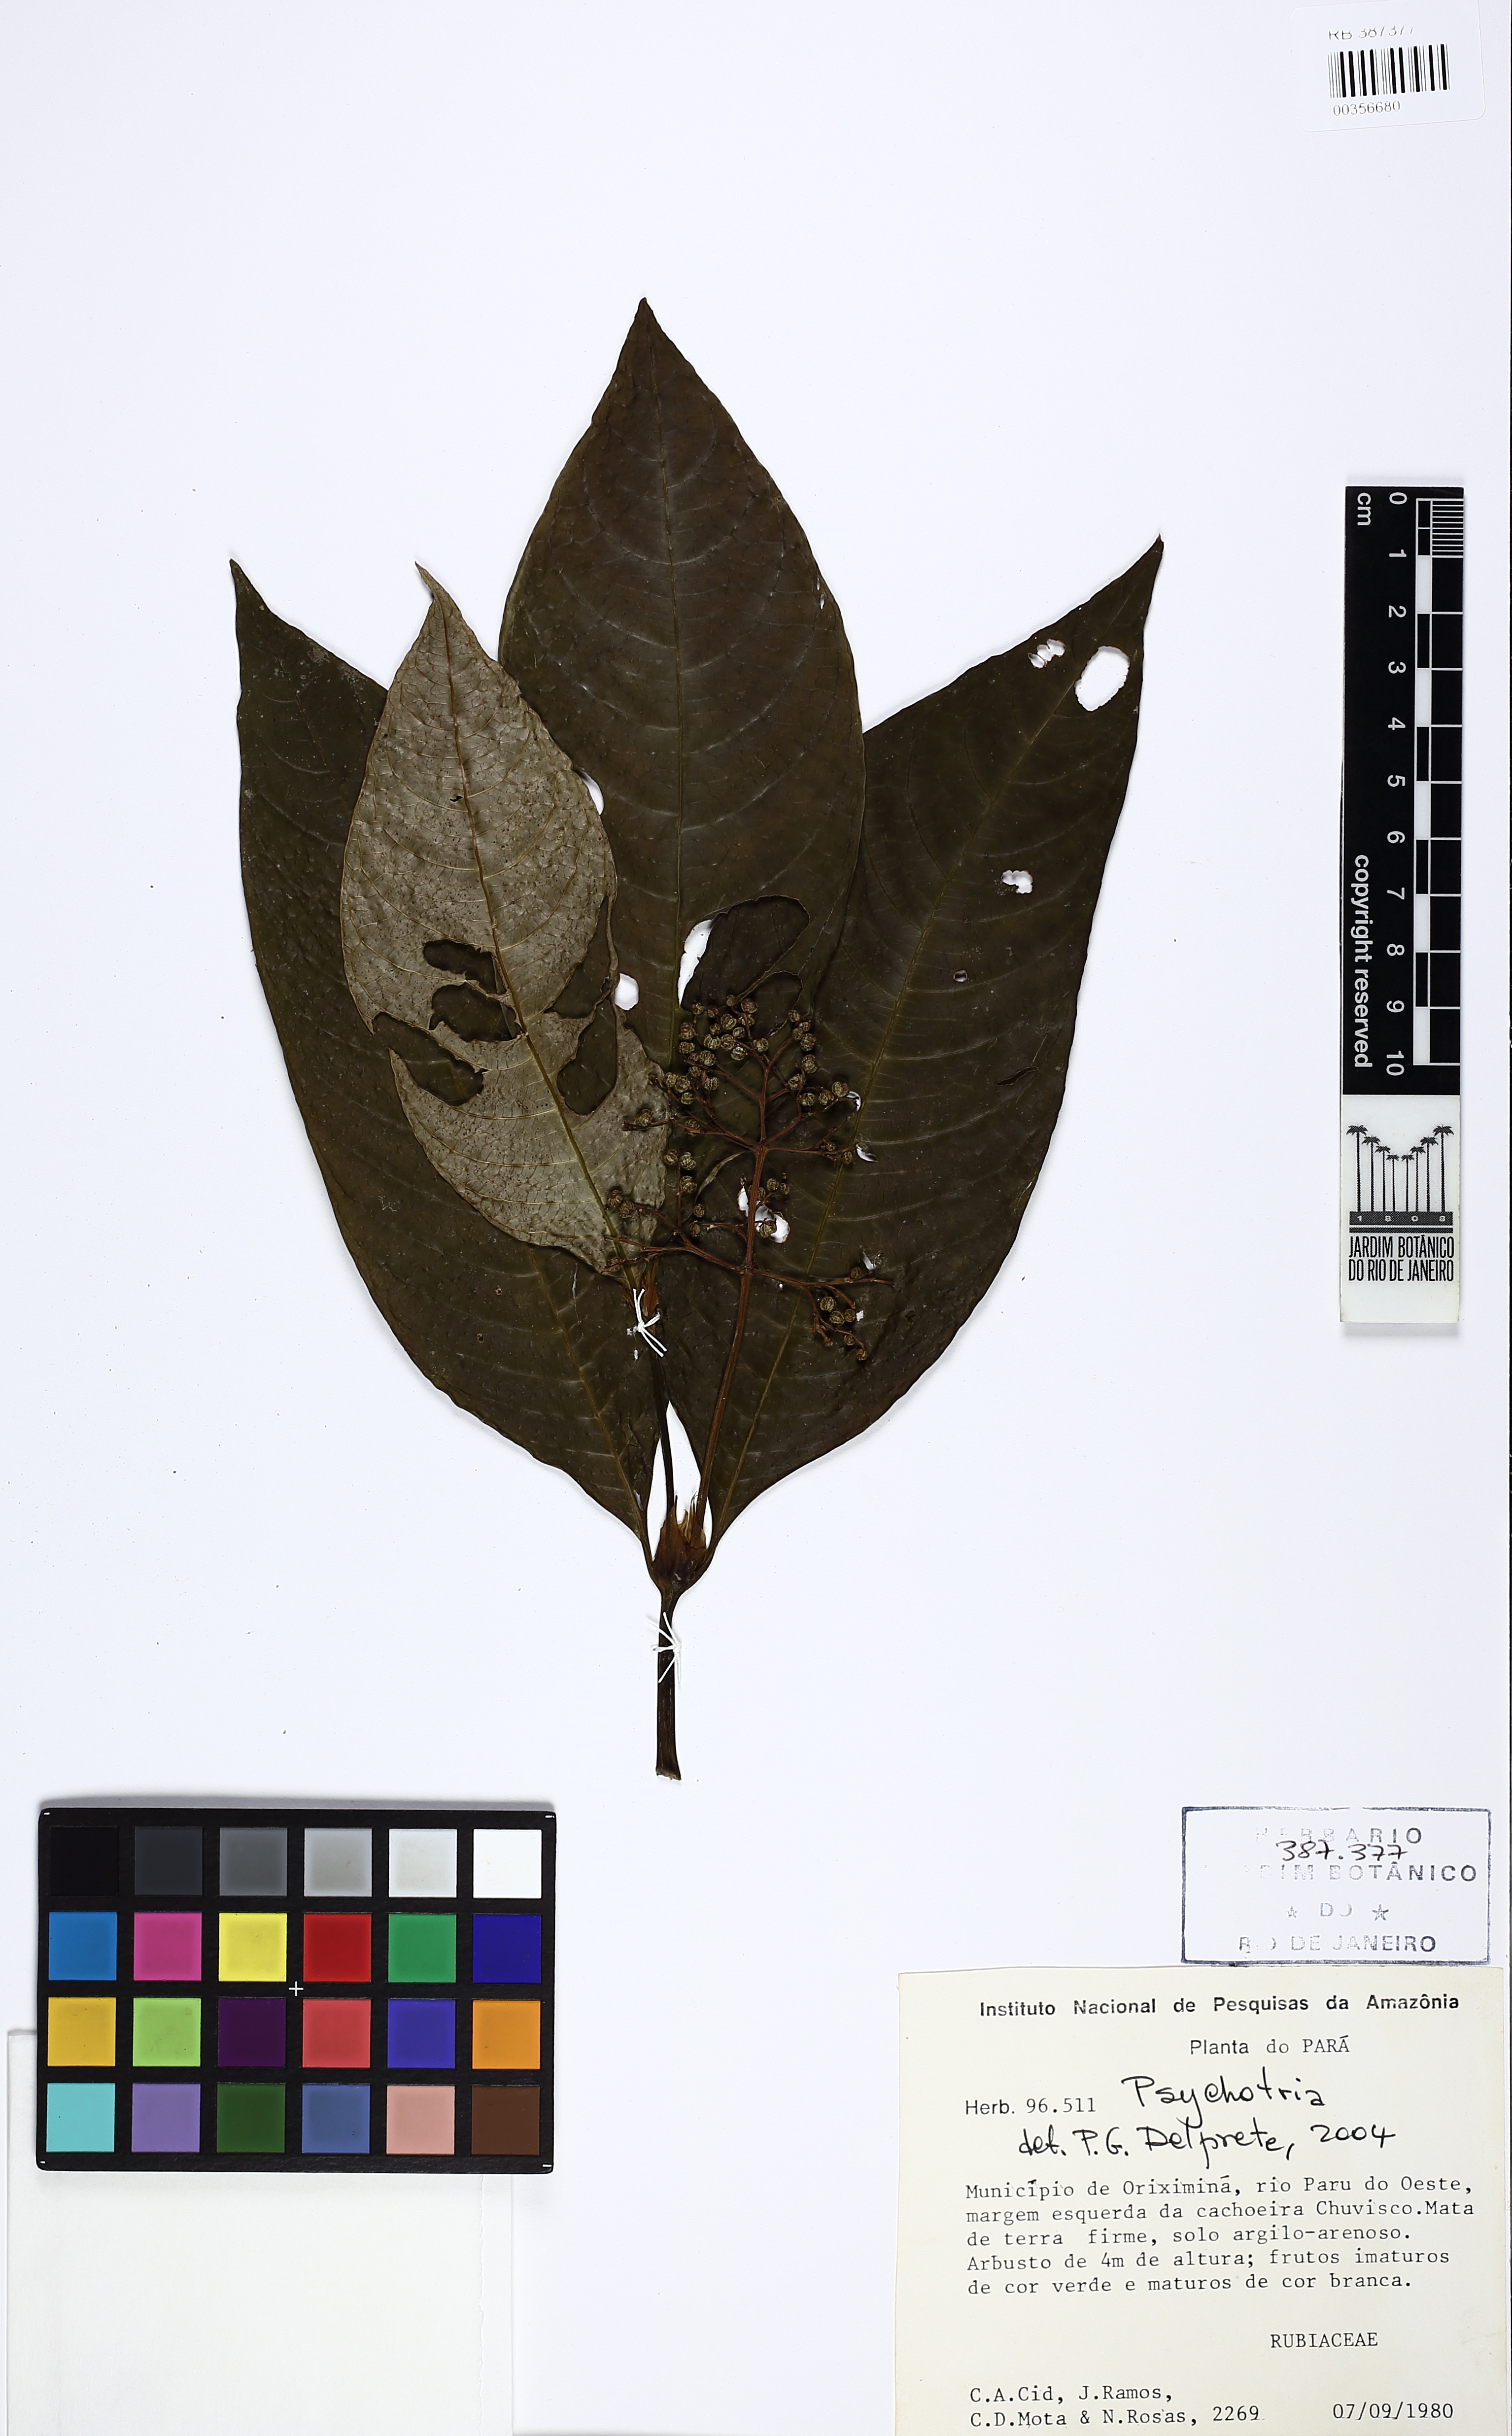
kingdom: Plantae
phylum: Tracheophyta
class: Magnoliopsida
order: Gentianales
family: Rubiaceae
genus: Paederia
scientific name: Paederia
